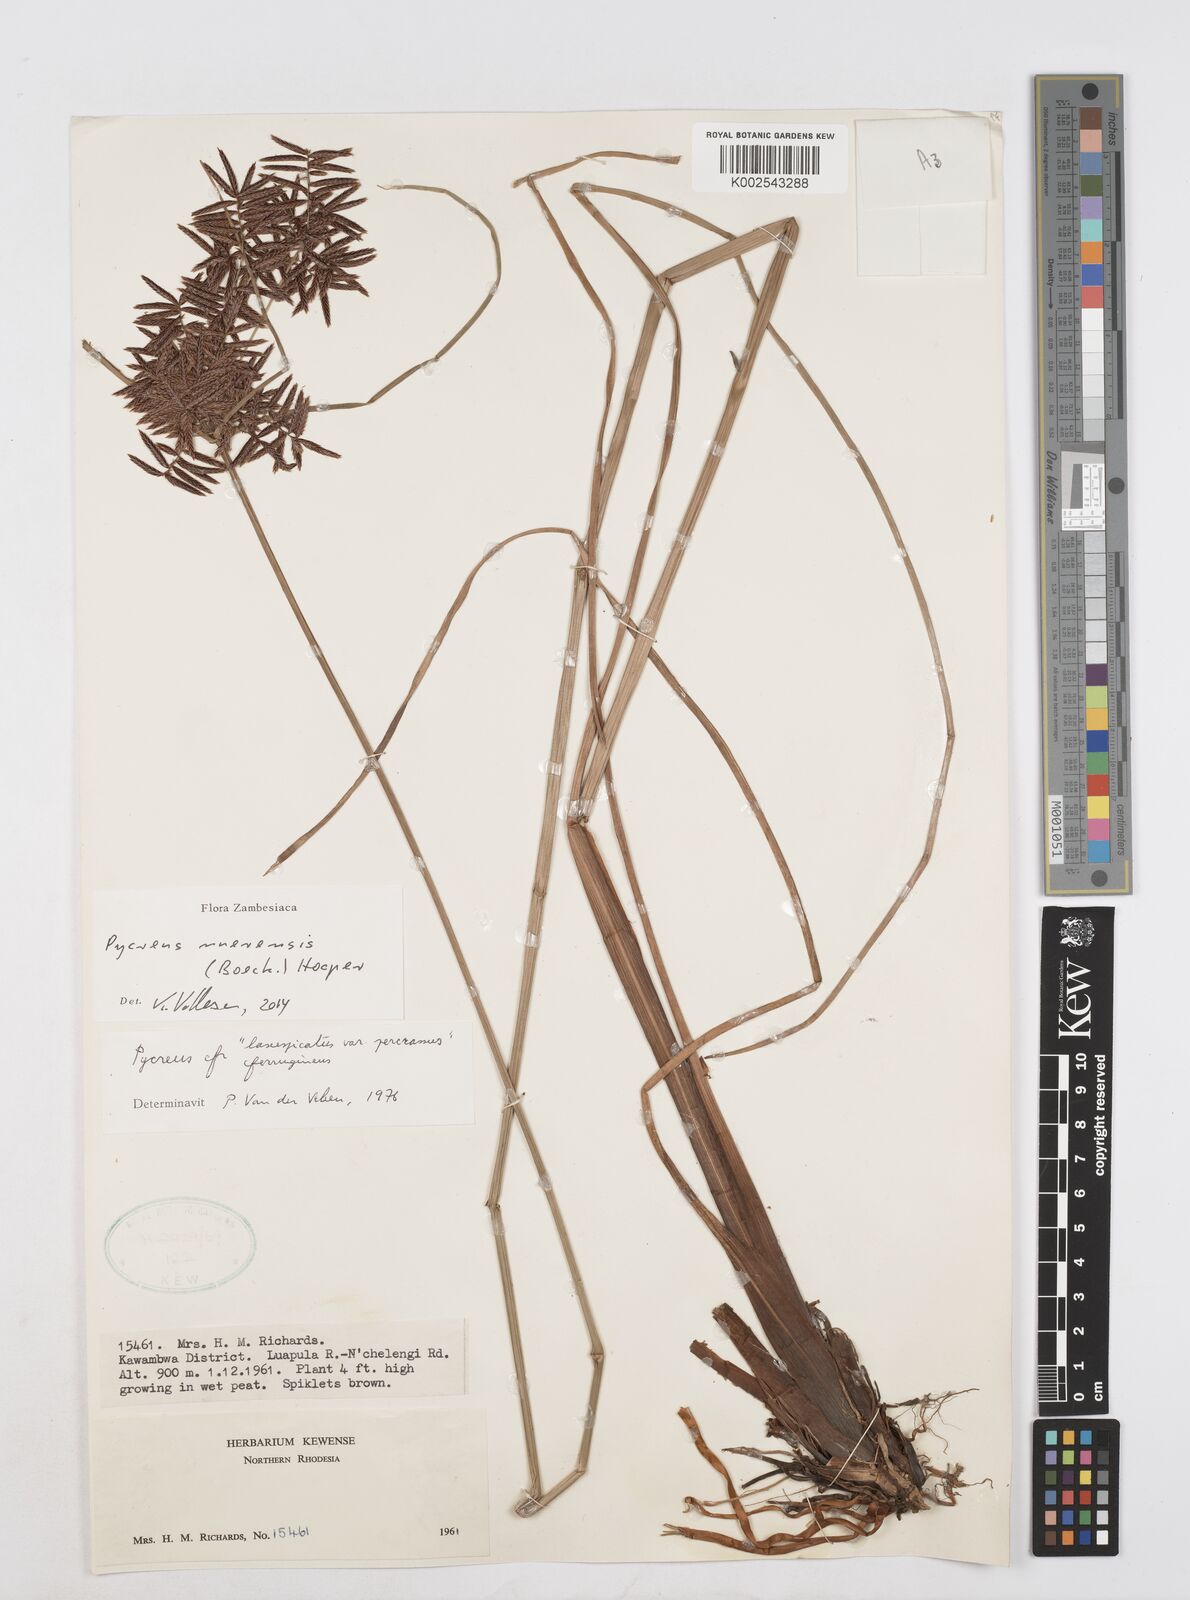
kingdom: Plantae
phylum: Tracheophyta
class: Liliopsida
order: Poales
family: Cyperaceae
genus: Cyperus
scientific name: Cyperus nuerensis
